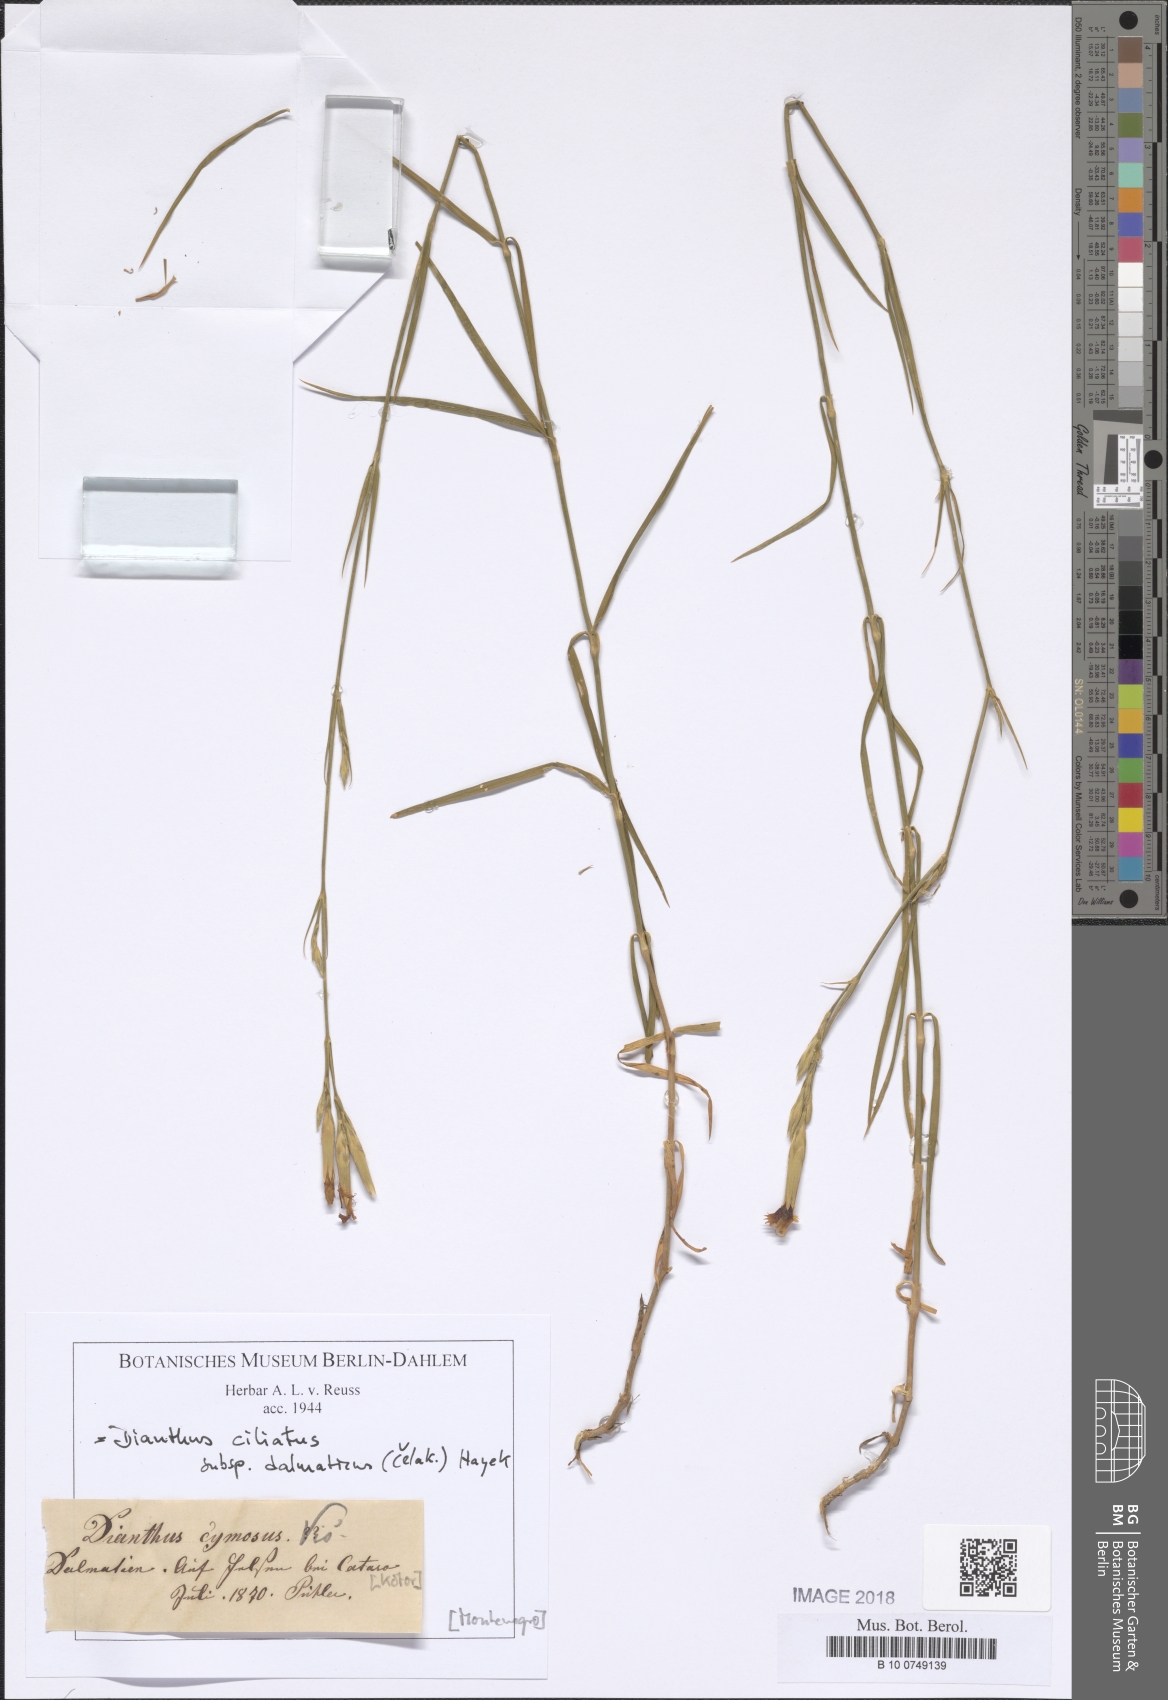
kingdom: Plantae
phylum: Tracheophyta
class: Magnoliopsida
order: Caryophyllales
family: Caryophyllaceae
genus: Dianthus
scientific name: Dianthus ciliatus
